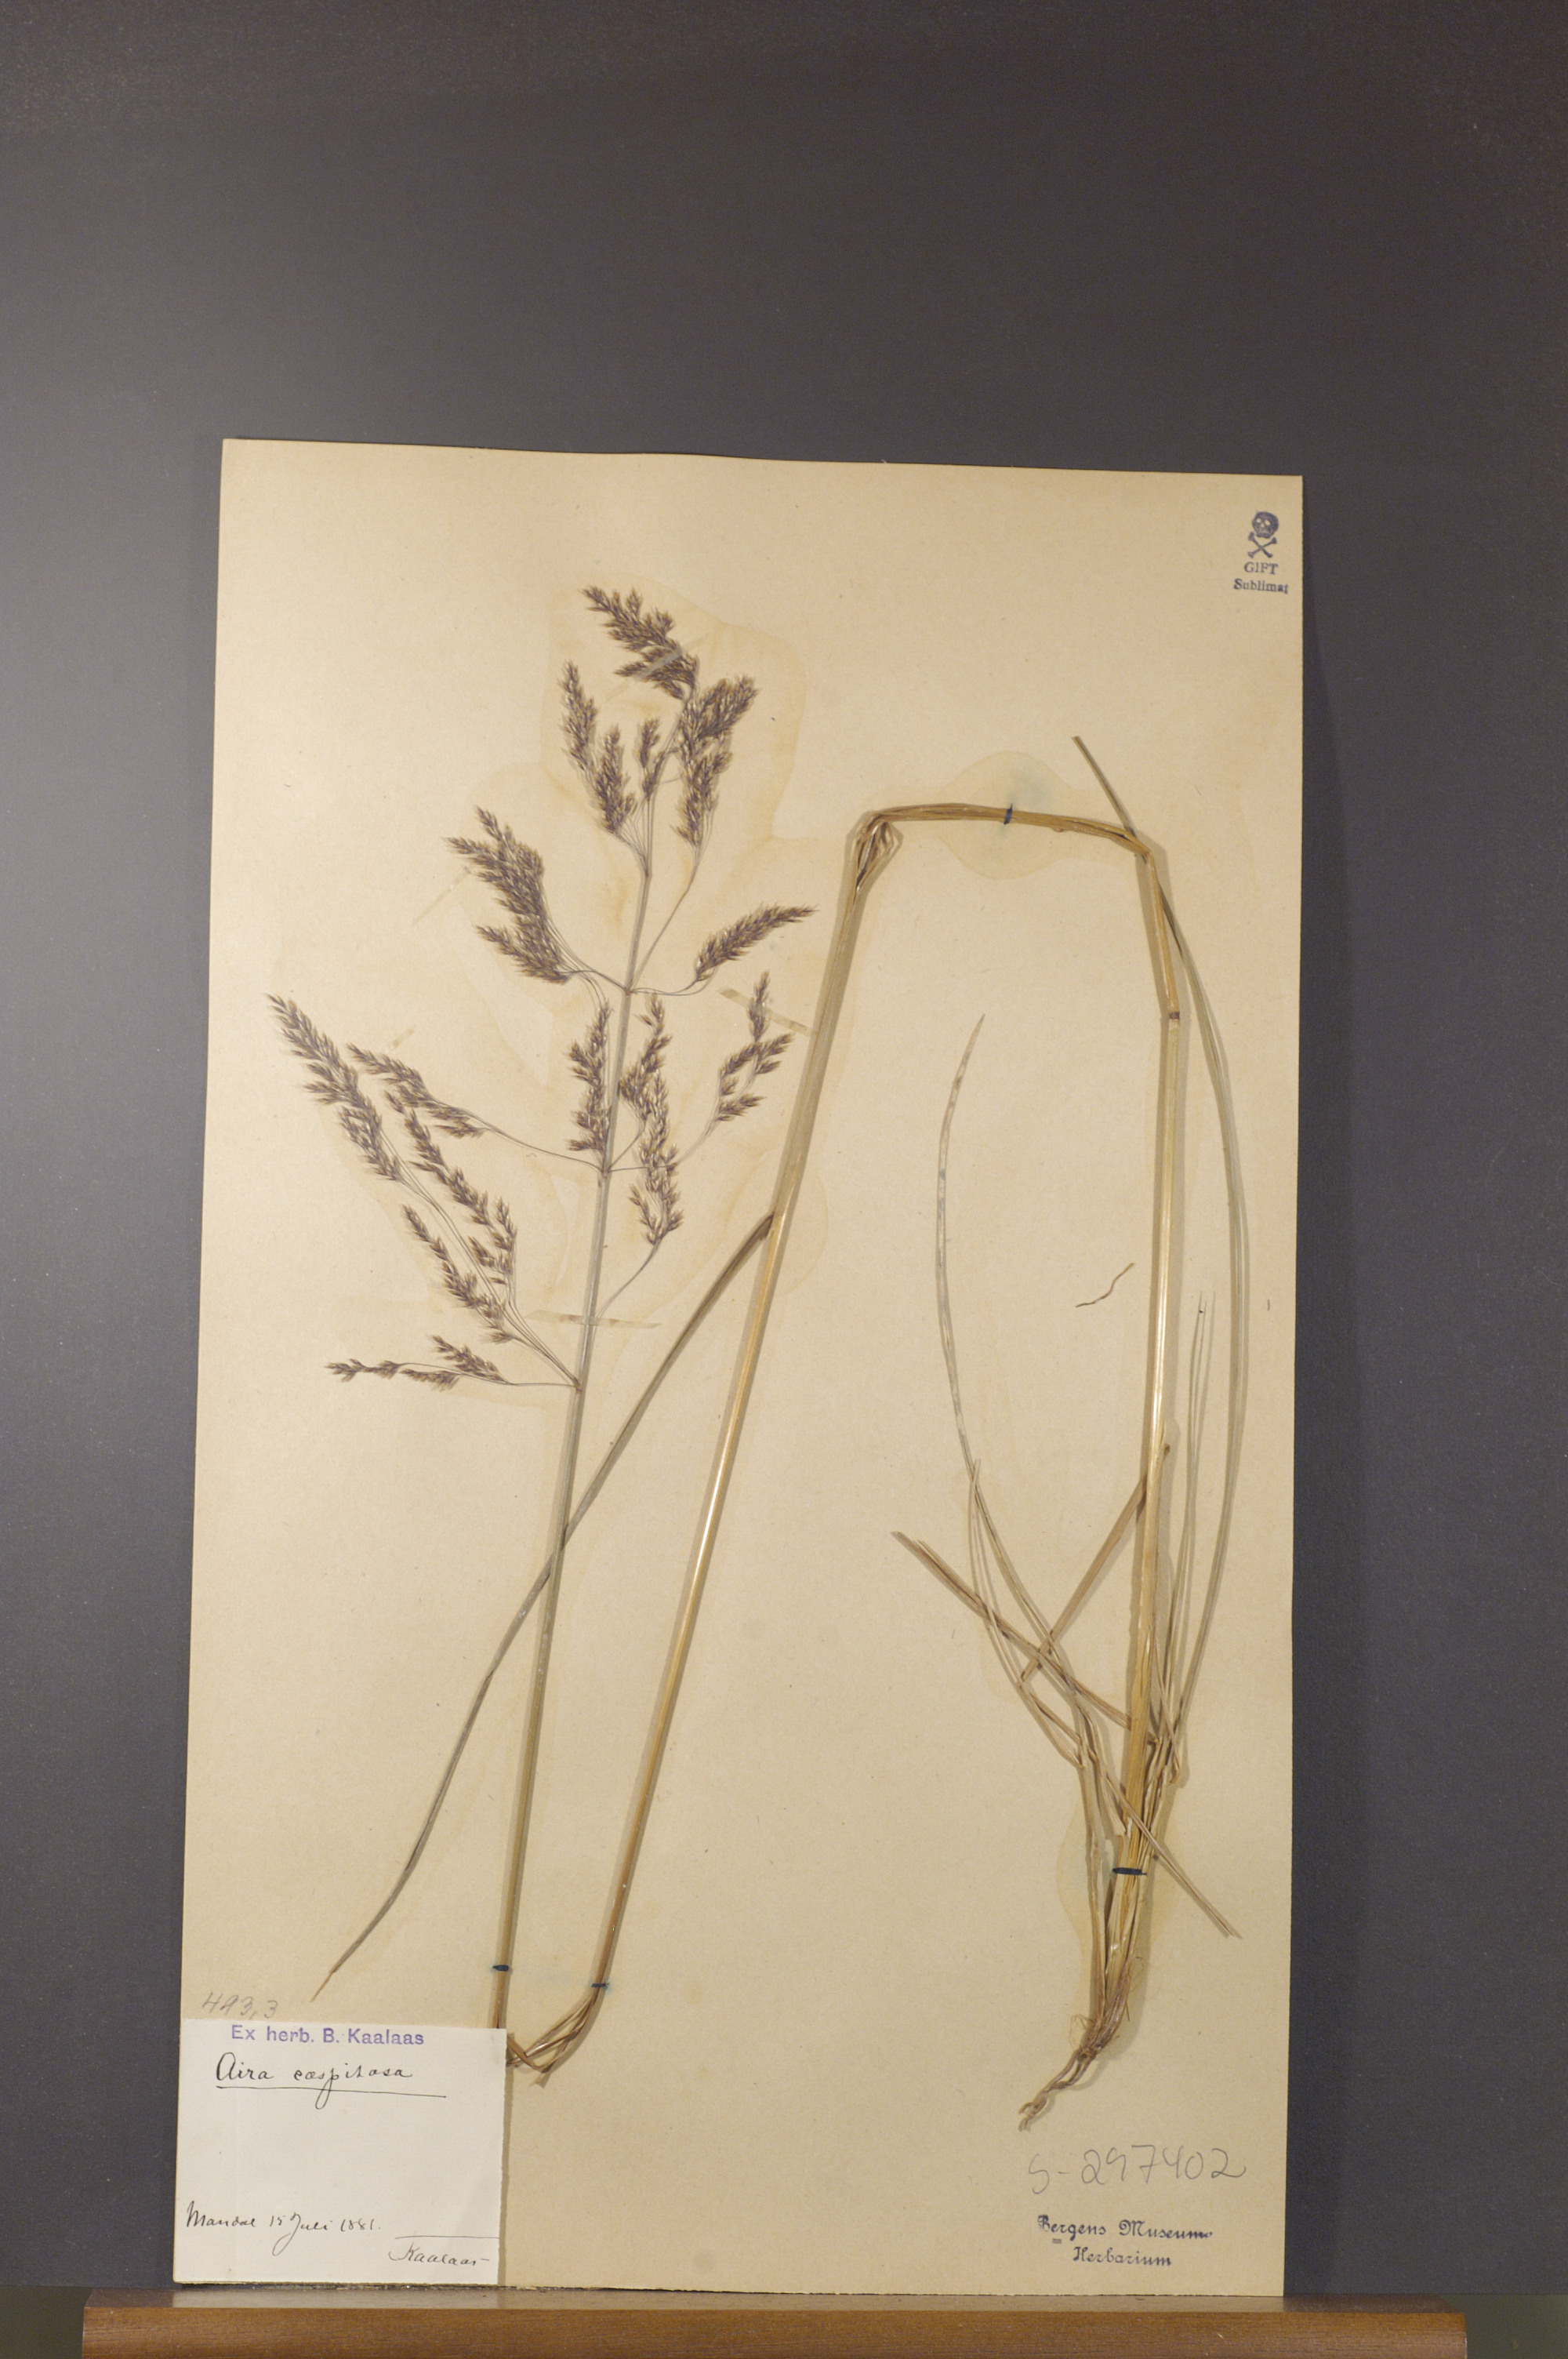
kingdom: Plantae
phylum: Tracheophyta
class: Liliopsida
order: Poales
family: Poaceae
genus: Deschampsia
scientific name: Deschampsia cespitosa
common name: Tufted hair-grass
